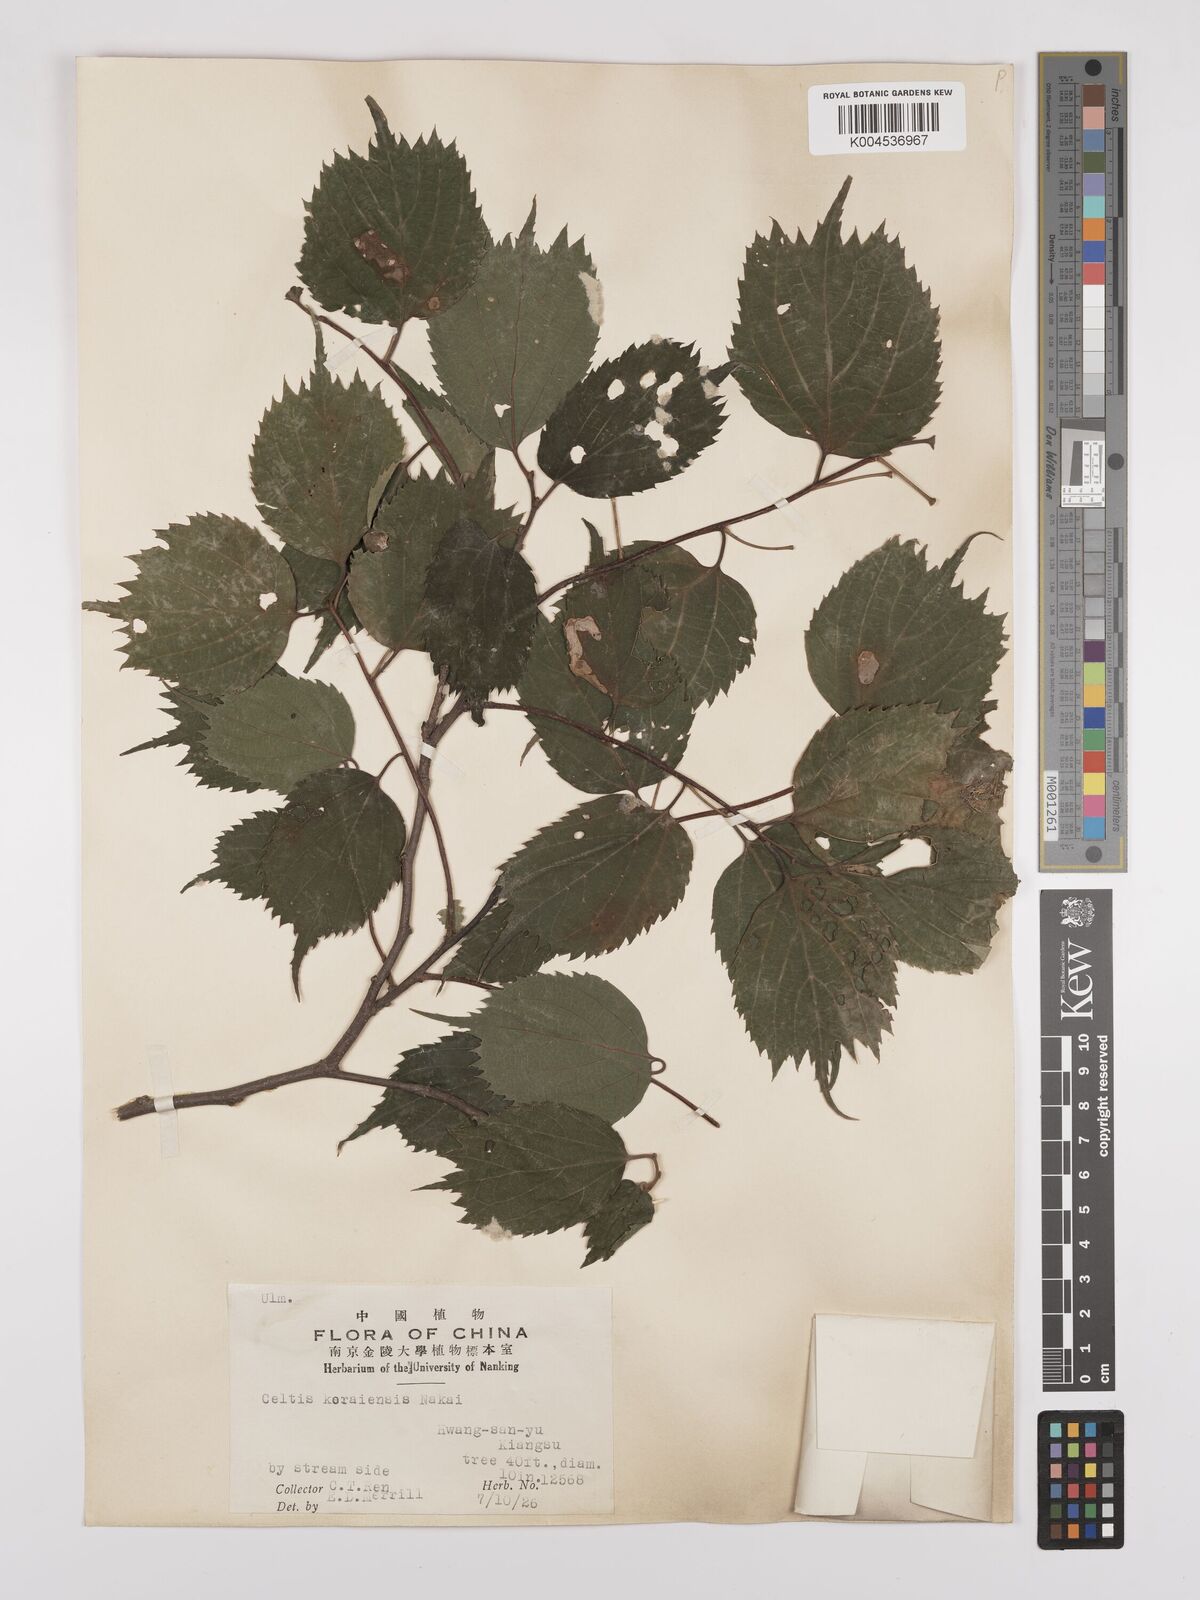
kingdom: Plantae
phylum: Tracheophyta
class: Magnoliopsida
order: Rosales
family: Cannabaceae
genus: Celtis
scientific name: Celtis koraiensis
